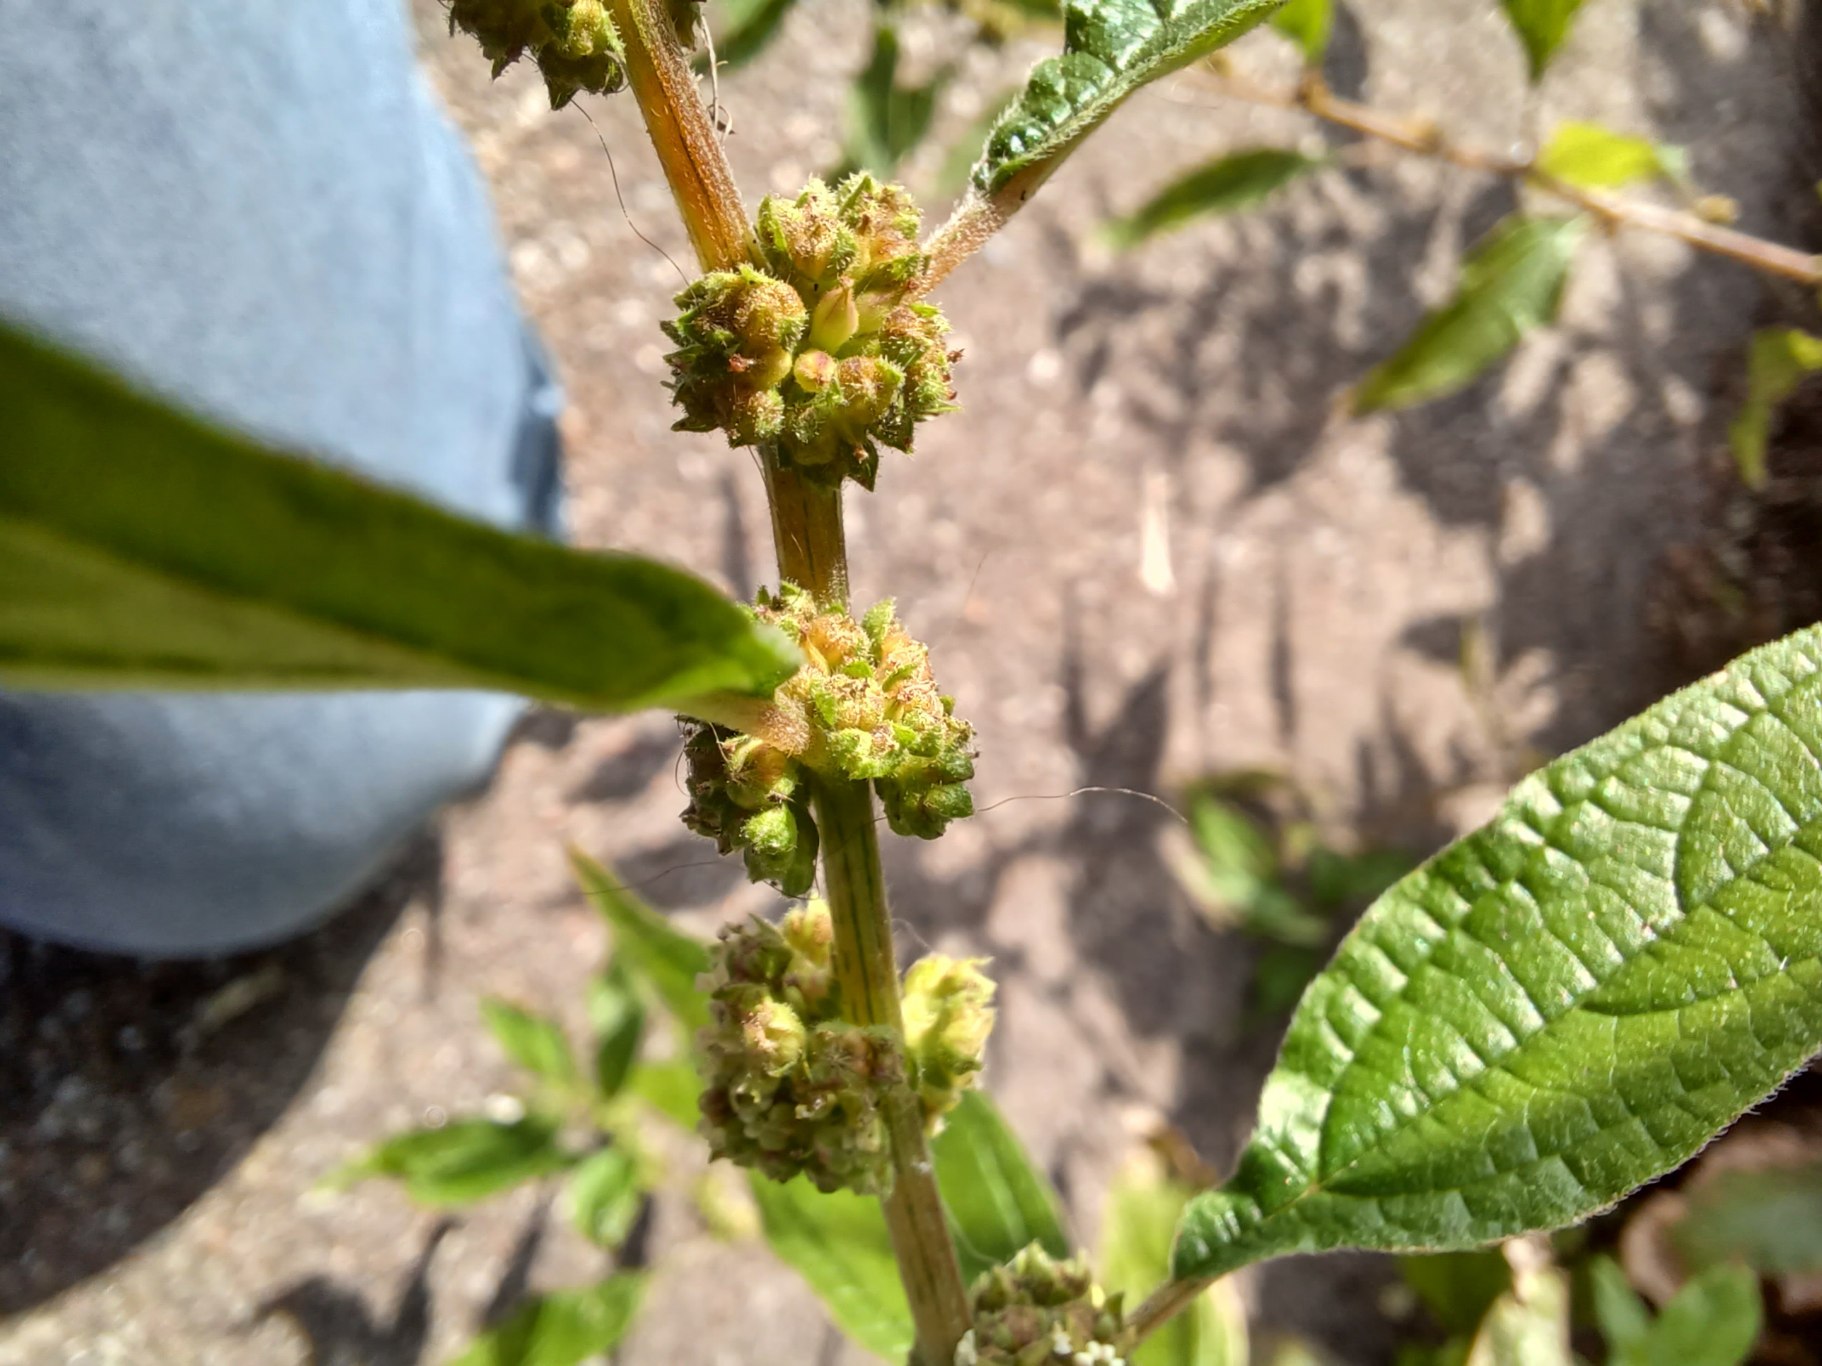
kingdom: Plantae
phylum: Tracheophyta
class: Magnoliopsida
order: Rosales
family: Urticaceae
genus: Parietaria
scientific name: Parietaria officinalis
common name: Almindelig springknap
